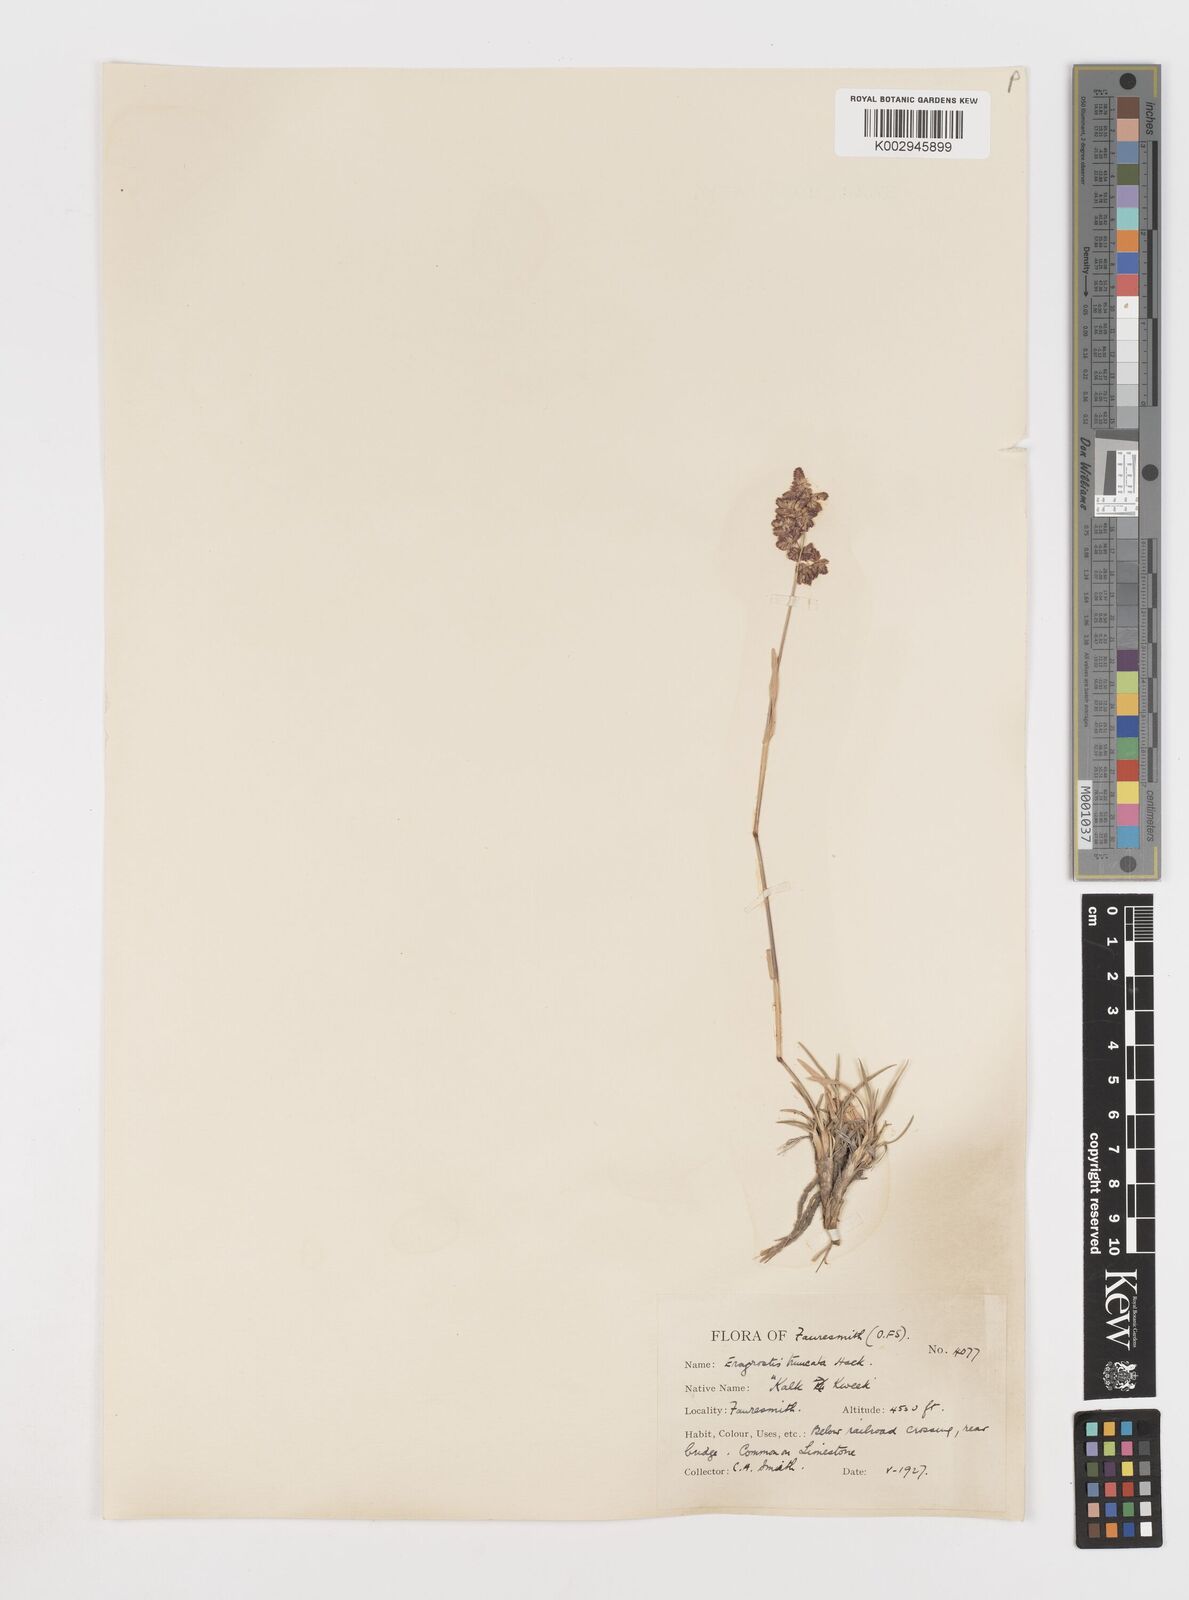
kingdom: Plantae
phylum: Tracheophyta
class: Liliopsida
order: Poales
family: Poaceae
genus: Eragrostis
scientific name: Eragrostis truncata
